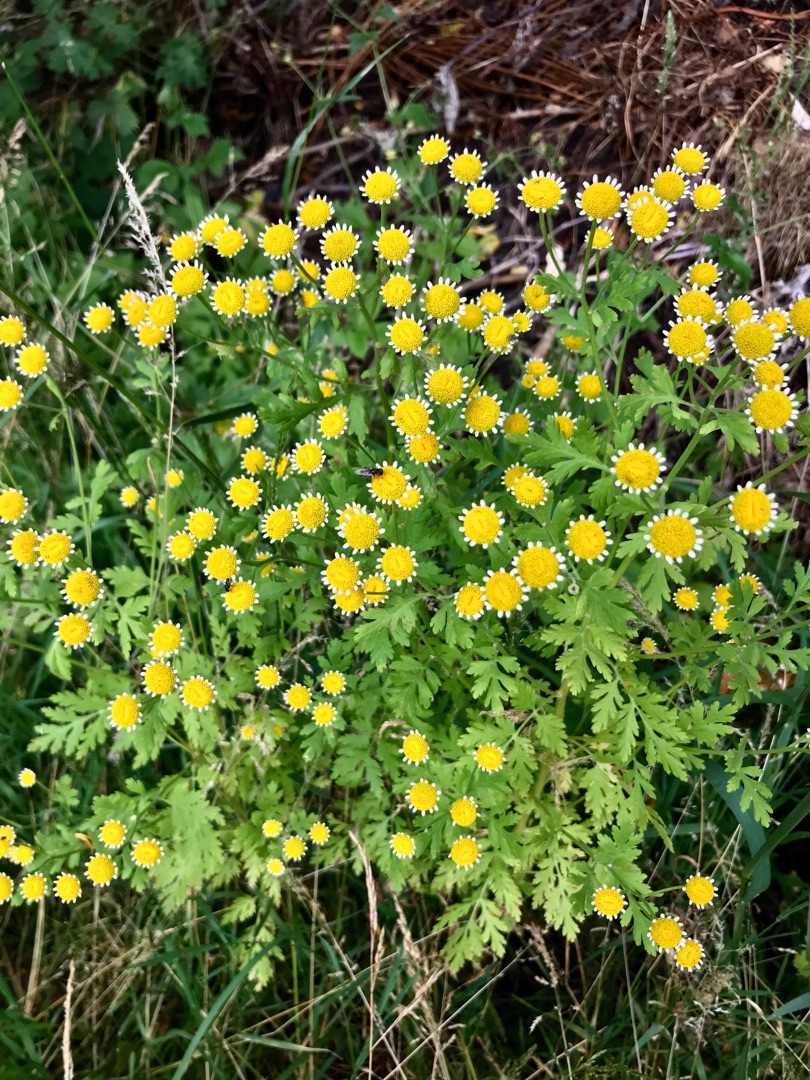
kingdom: Plantae
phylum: Tracheophyta
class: Magnoliopsida
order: Asterales
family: Asteraceae
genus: Tanacetum
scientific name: Tanacetum parthenium
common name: Matrem
